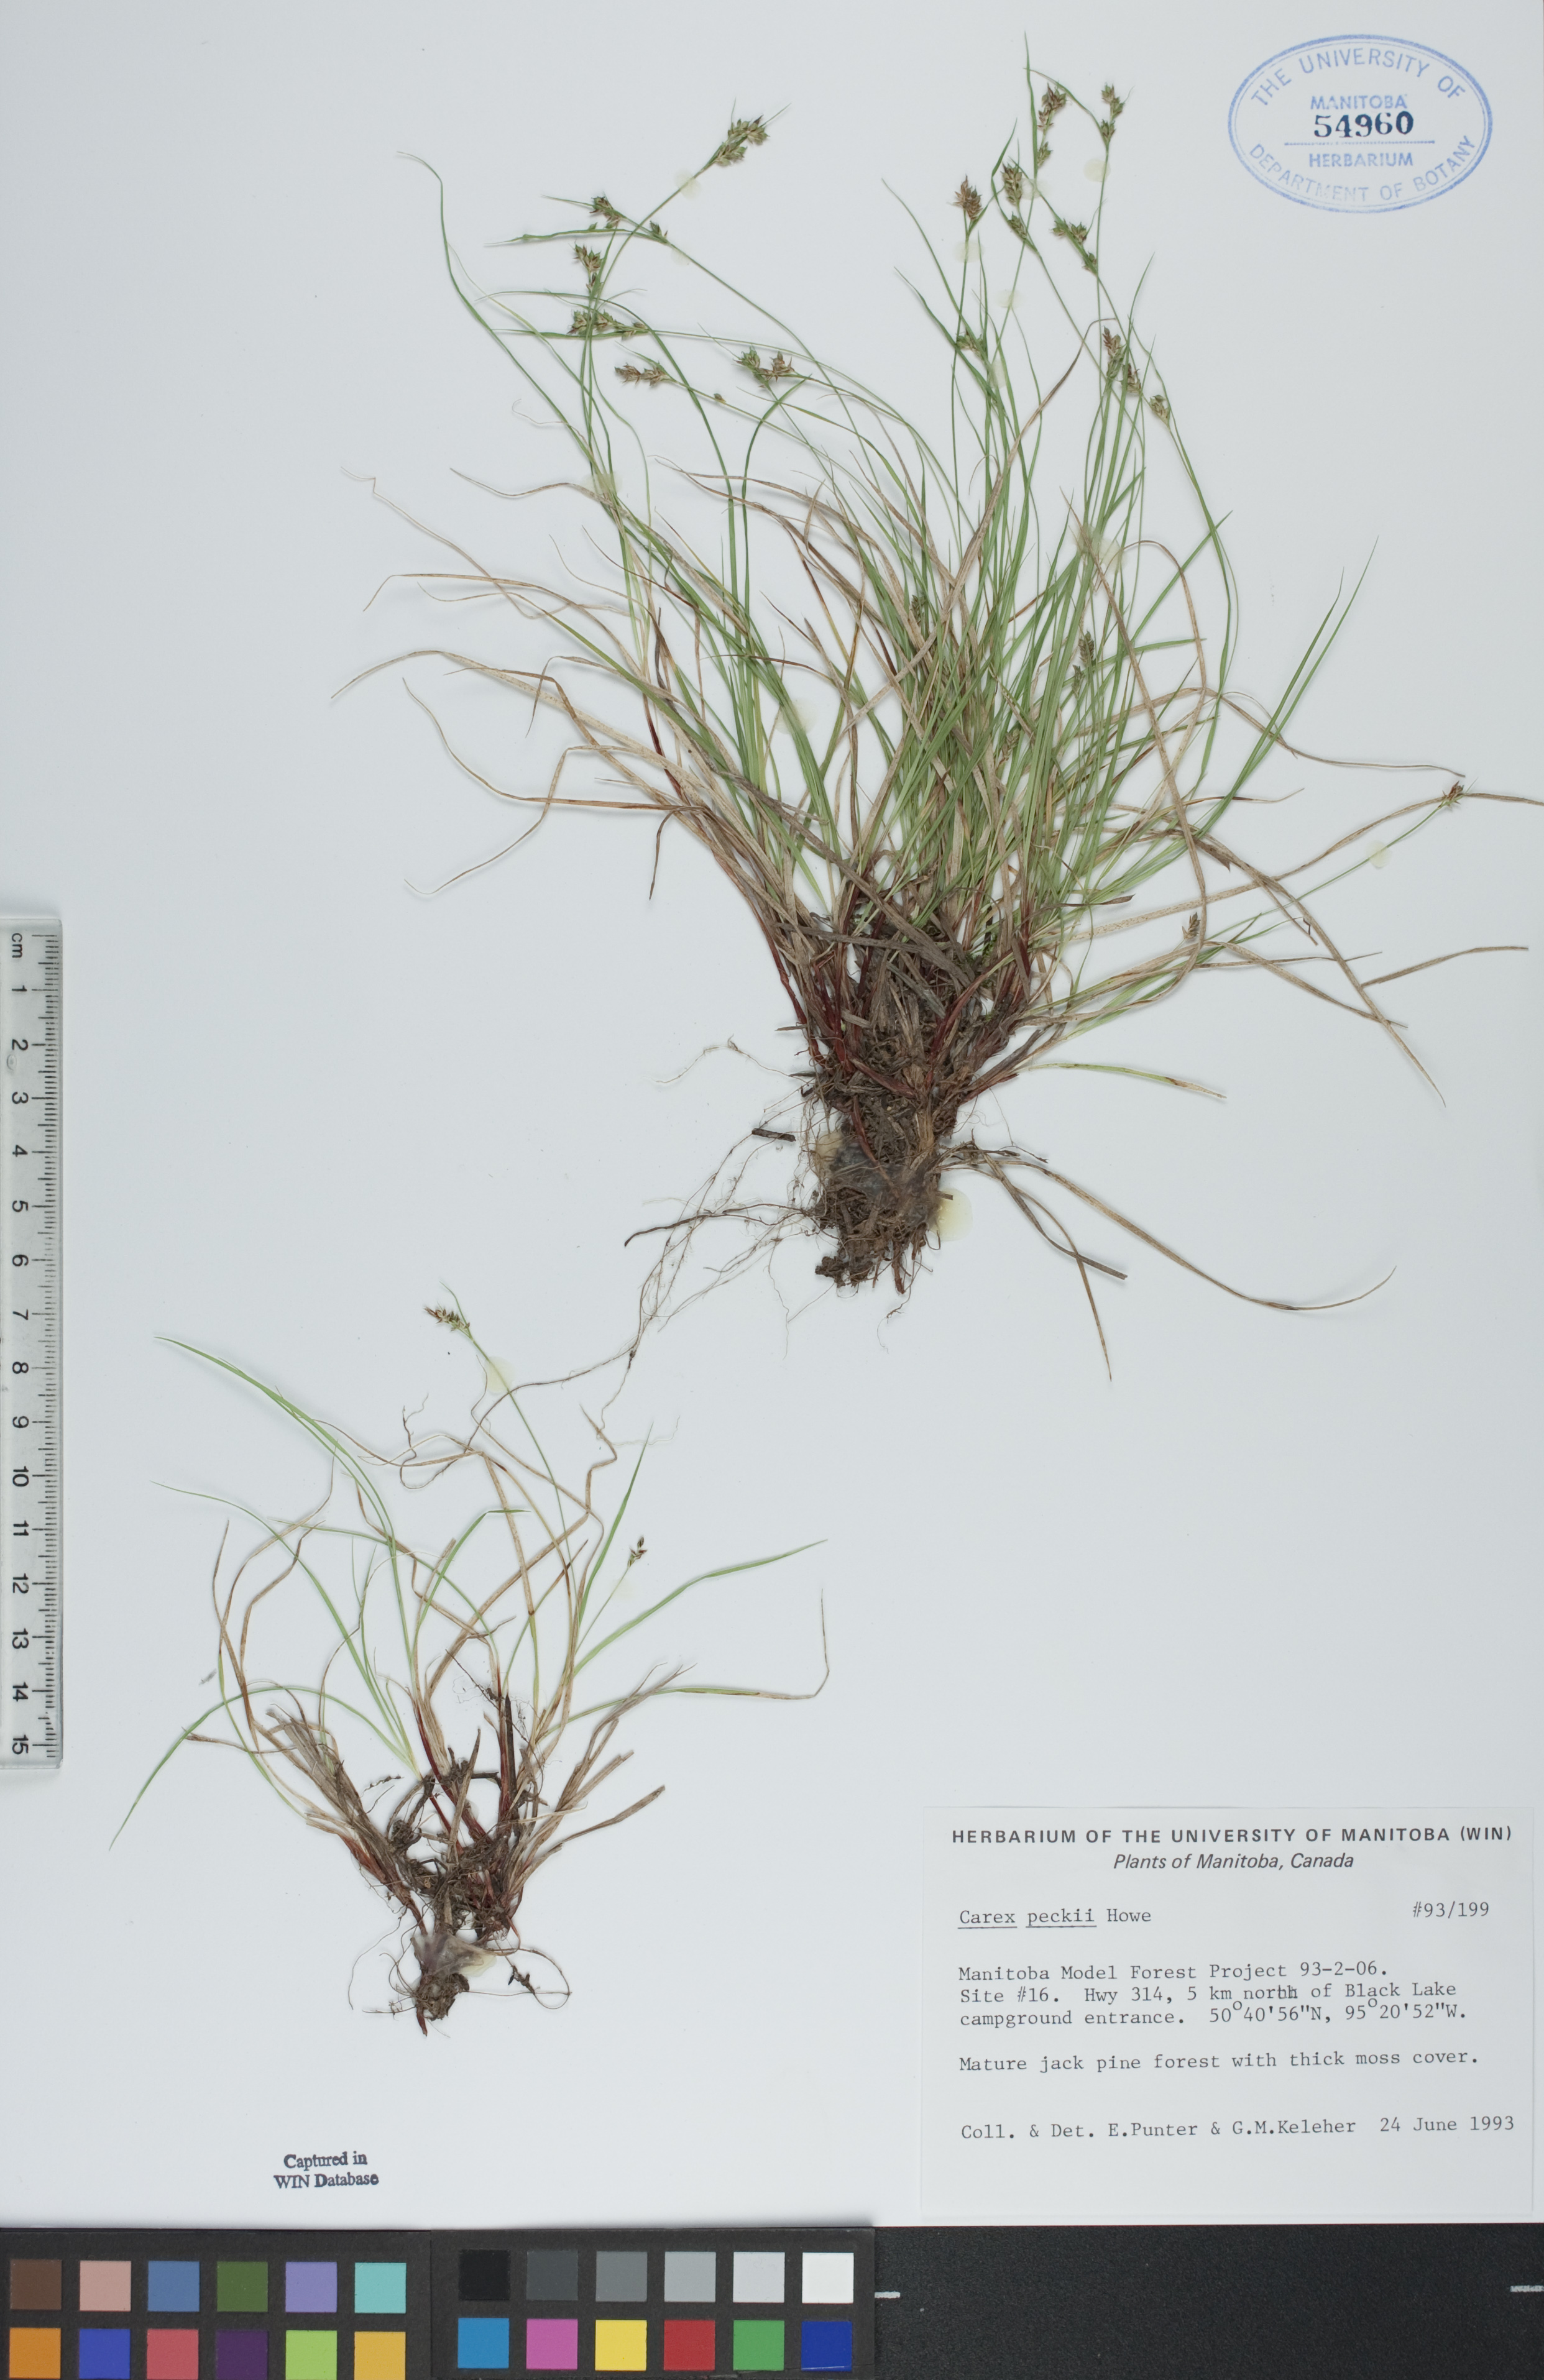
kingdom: Plantae
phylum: Tracheophyta
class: Liliopsida
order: Poales
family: Cyperaceae
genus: Carex
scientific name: Carex peckii
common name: Peck's oak sedge
